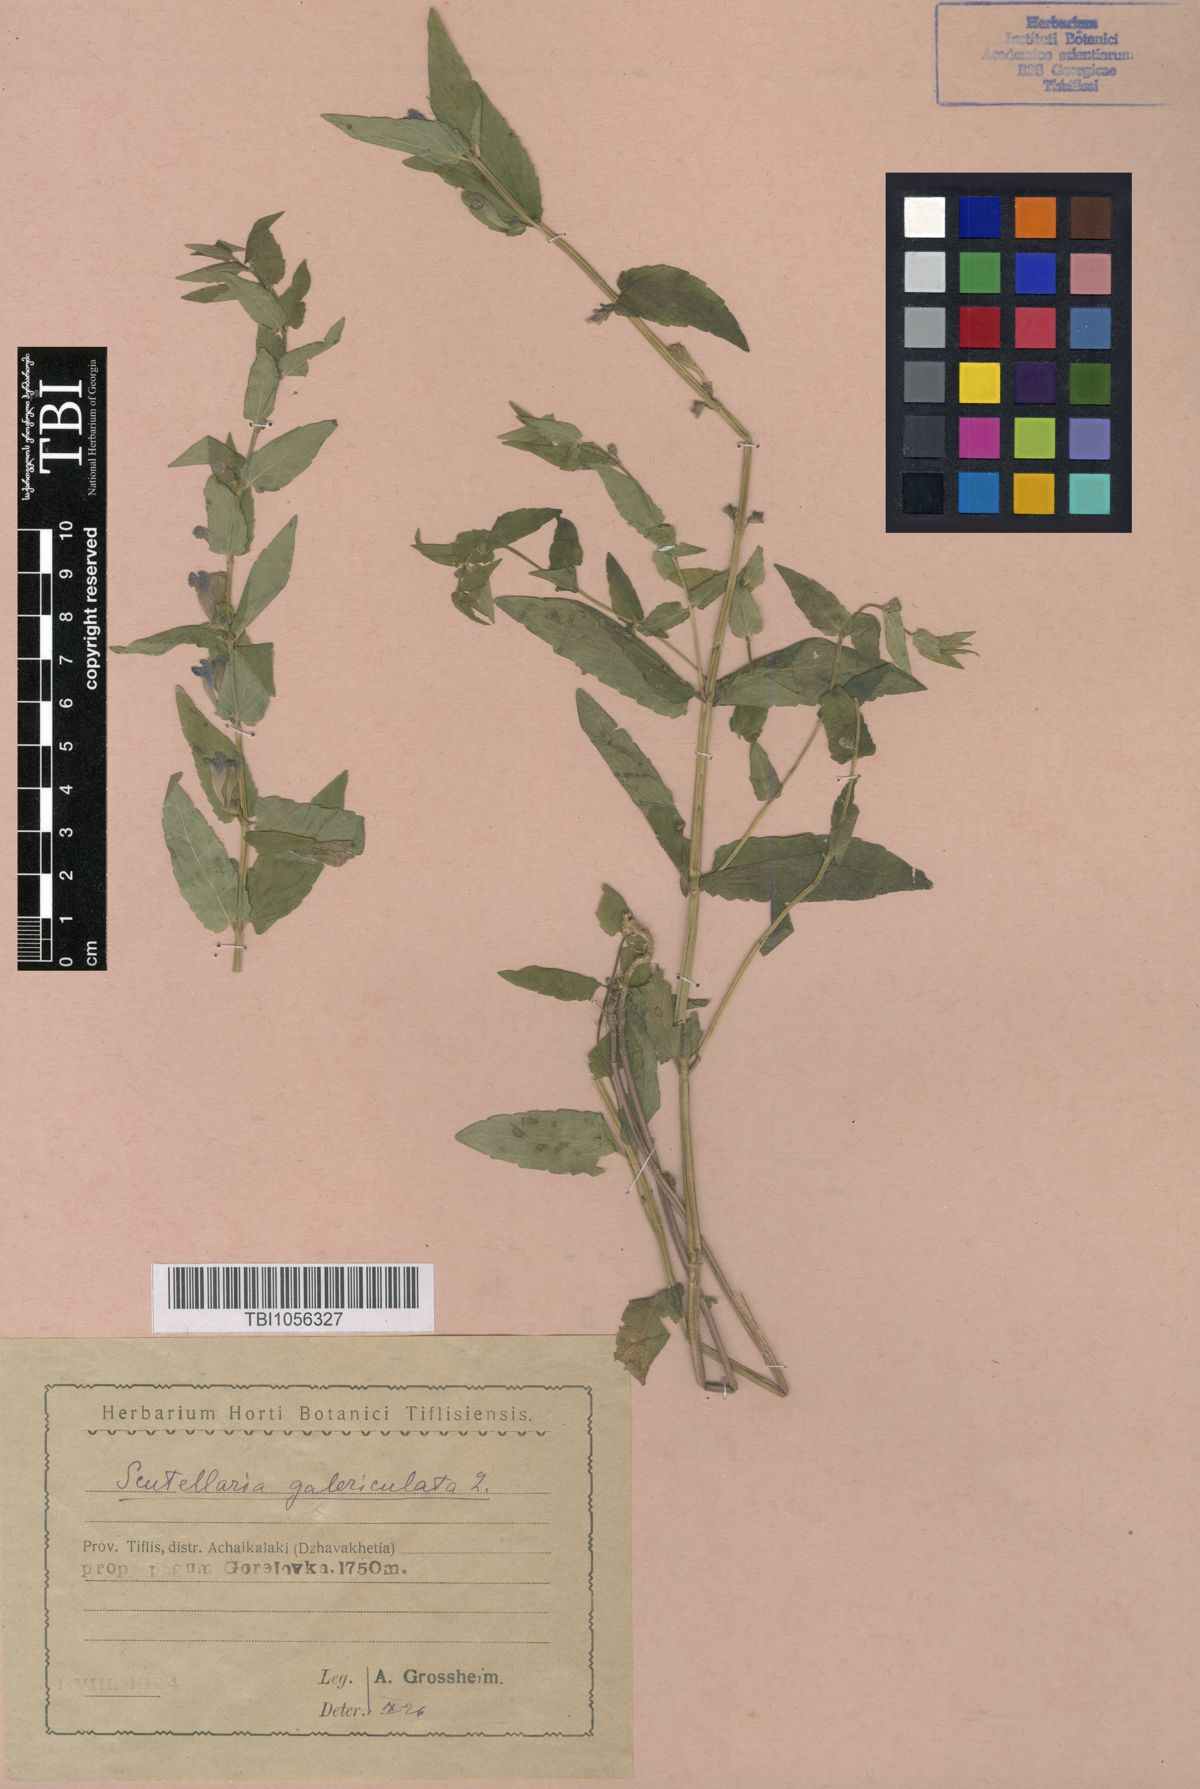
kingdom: Plantae
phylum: Tracheophyta
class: Magnoliopsida
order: Lamiales
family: Lamiaceae
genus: Scutellaria
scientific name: Scutellaria galericulata
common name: Skullcap
